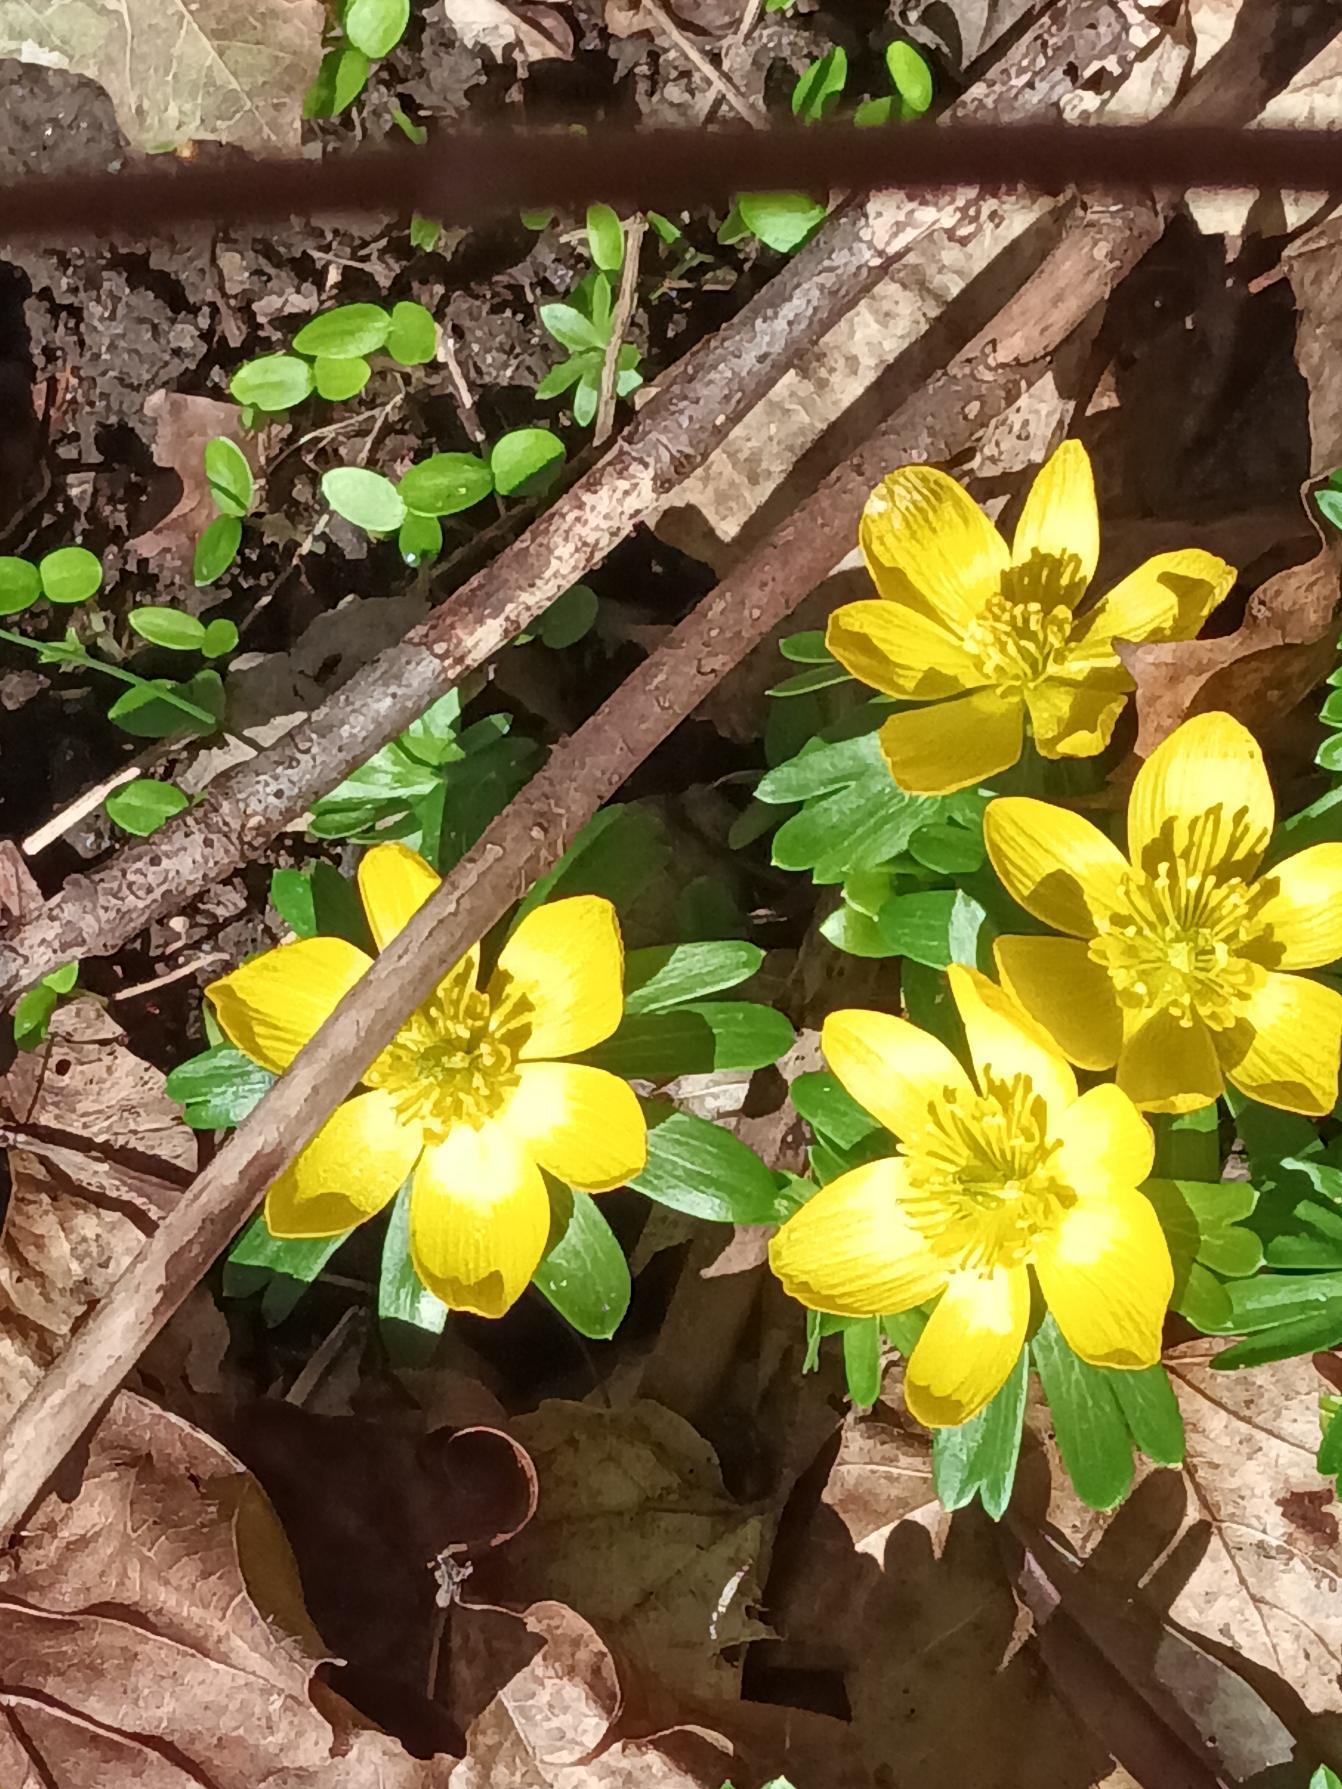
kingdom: Plantae
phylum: Tracheophyta
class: Magnoliopsida
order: Ranunculales
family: Ranunculaceae
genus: Eranthis
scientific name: Eranthis hyemalis
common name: Erantis
